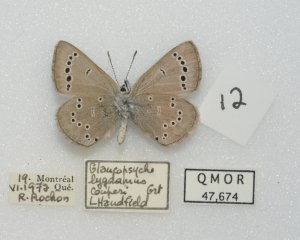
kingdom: Animalia
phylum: Arthropoda
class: Insecta
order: Lepidoptera
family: Lycaenidae
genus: Glaucopsyche
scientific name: Glaucopsyche lygdamus
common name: Silvery Blue
